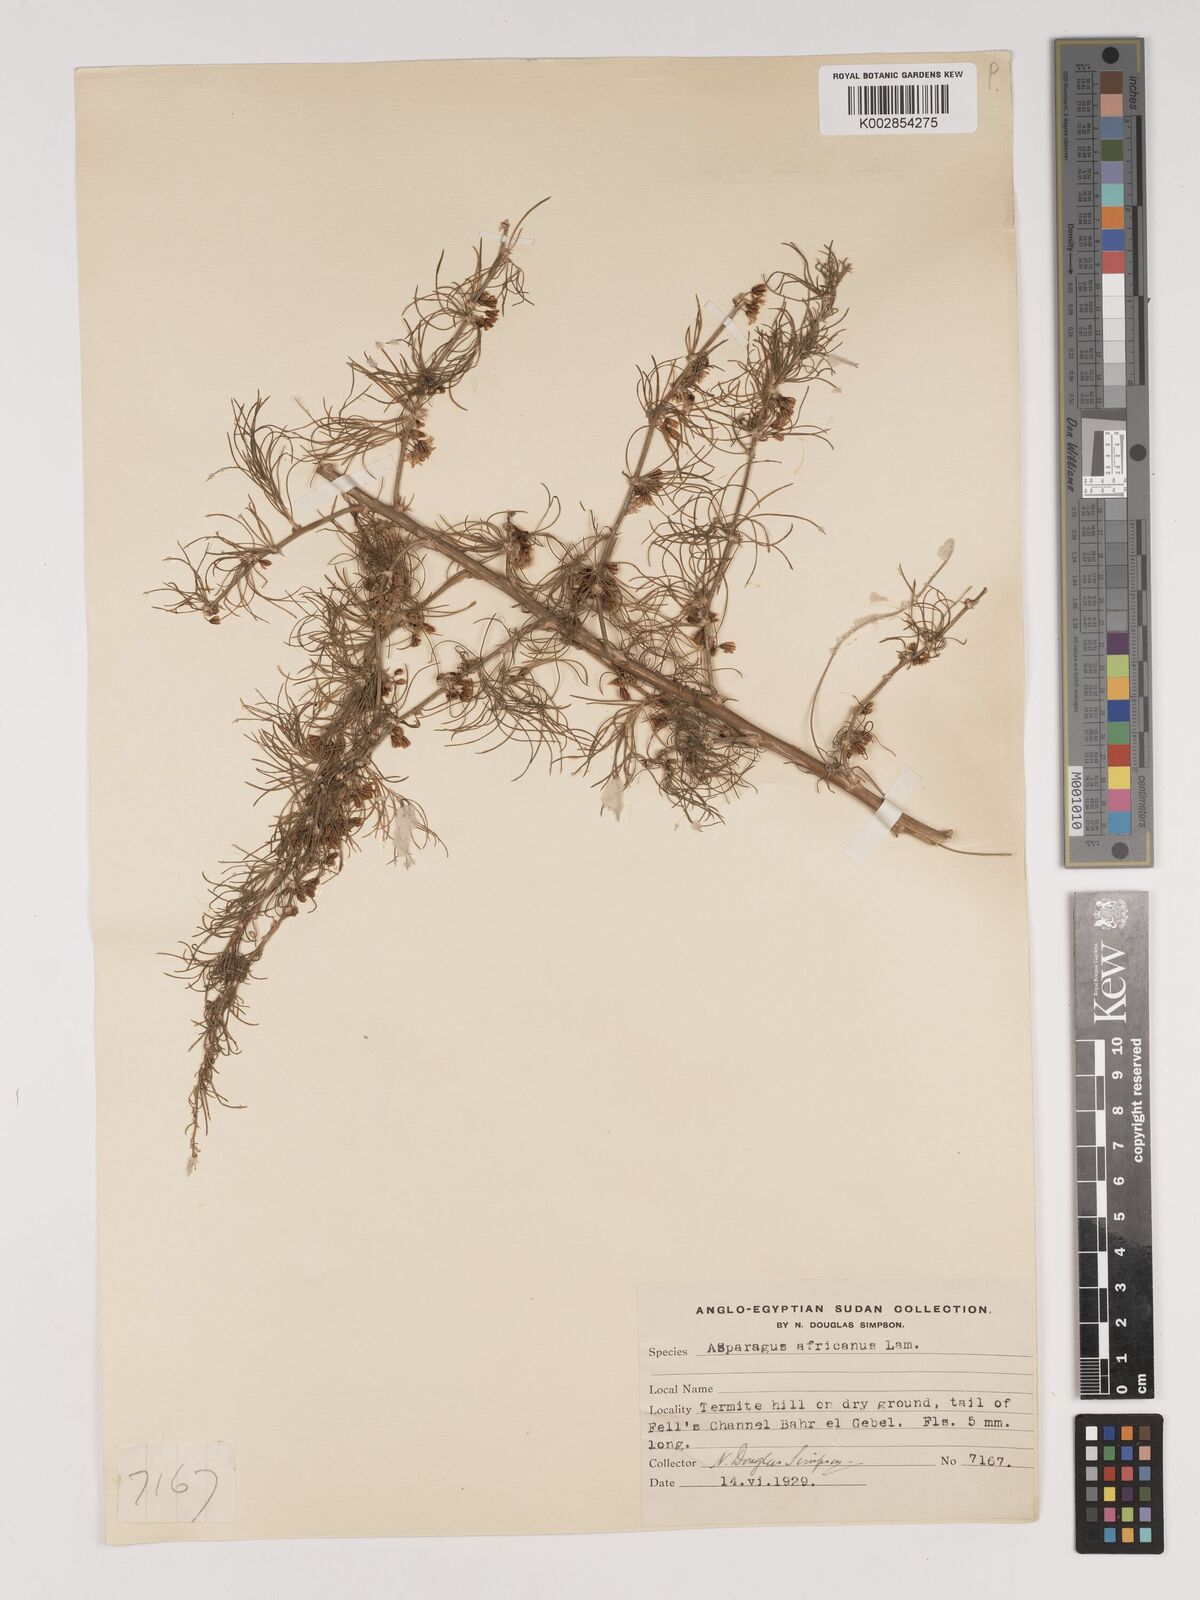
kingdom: Plantae
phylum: Tracheophyta
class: Liliopsida
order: Asparagales
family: Asparagaceae
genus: Asparagus
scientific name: Asparagus africanus
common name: Asparagus-fern
